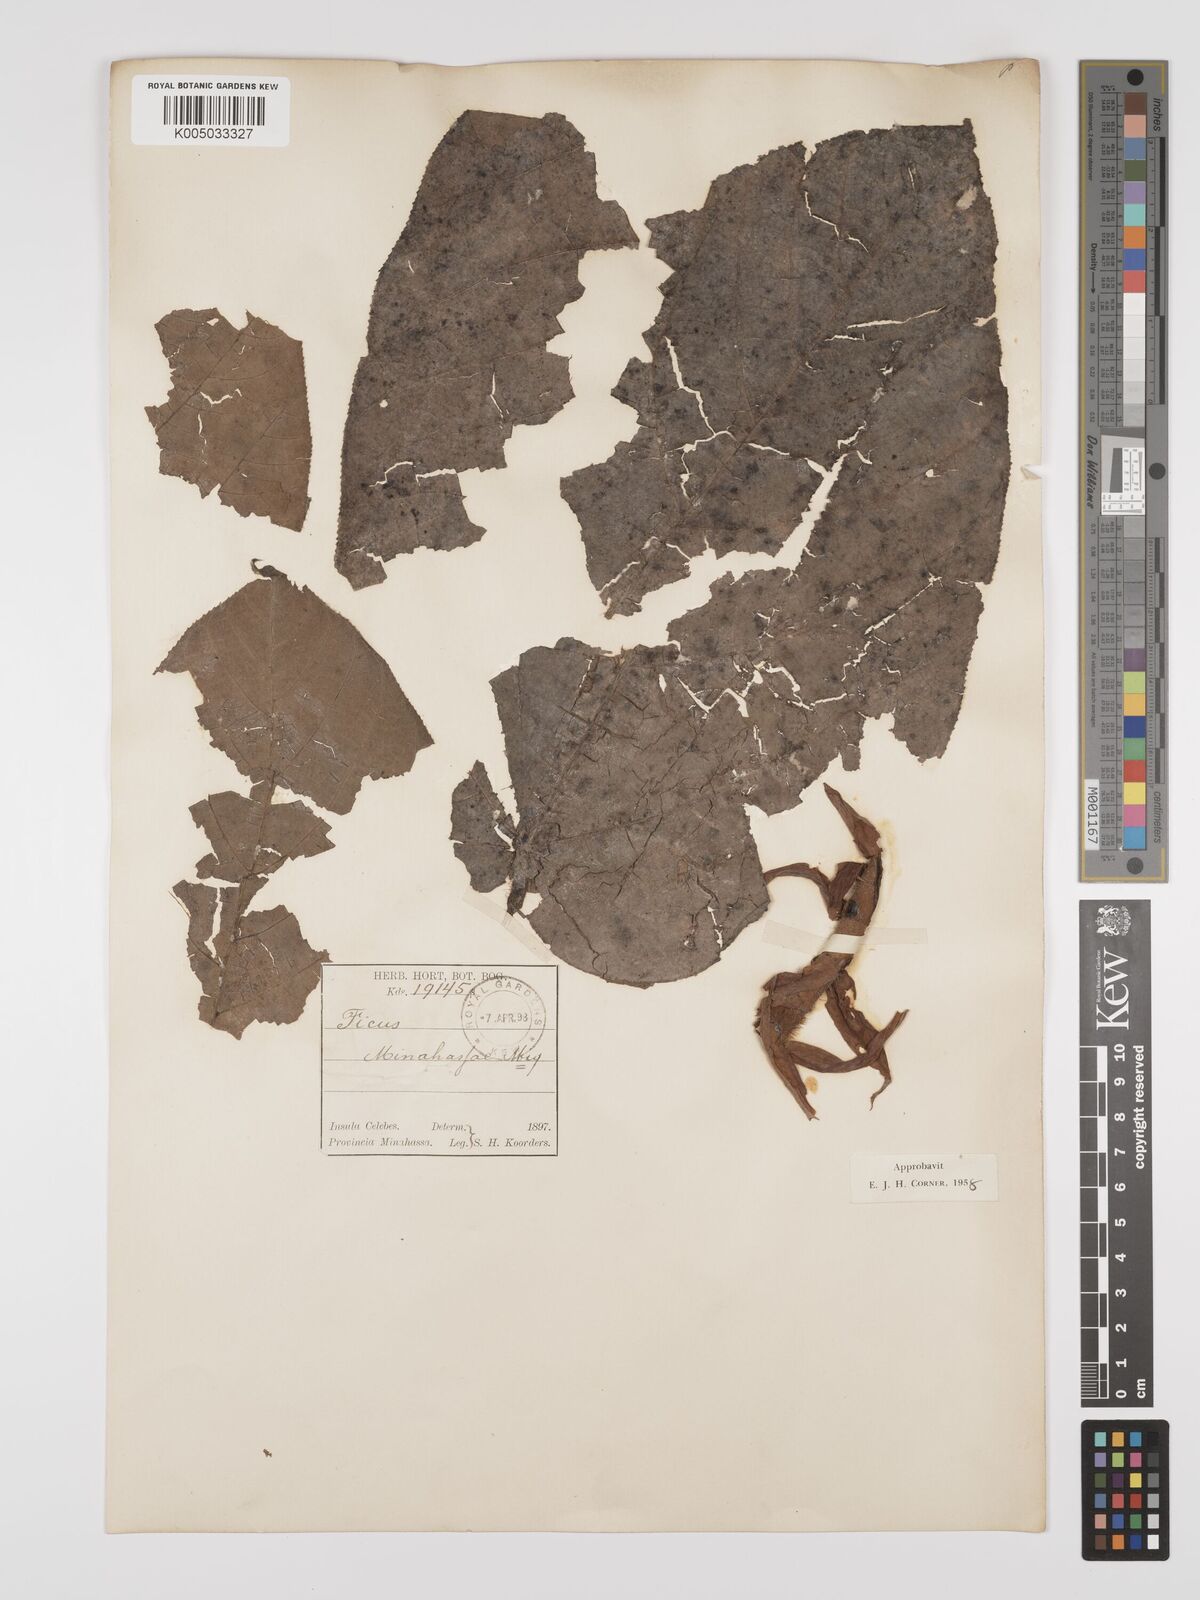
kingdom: Plantae
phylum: Tracheophyta
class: Magnoliopsida
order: Rosales
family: Moraceae
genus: Ficus
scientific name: Ficus minahassae
